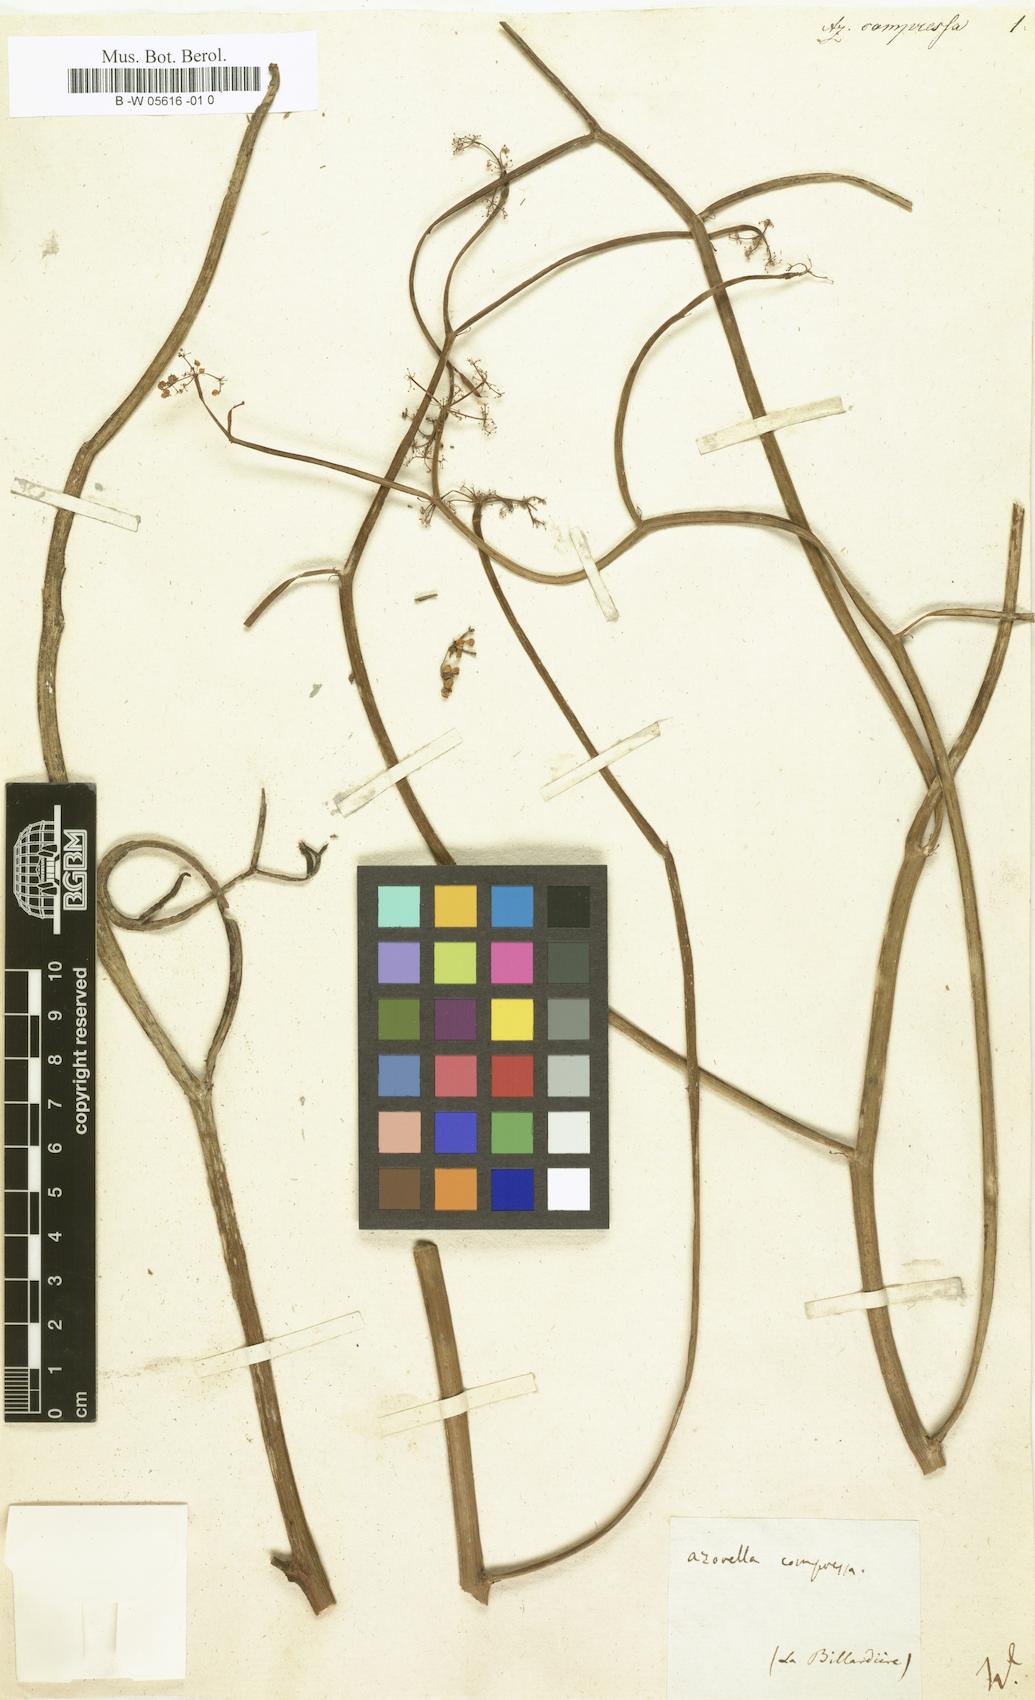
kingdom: Plantae
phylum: Tracheophyta
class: Magnoliopsida
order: Apiales
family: Apiaceae
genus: Platysace
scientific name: Platysace compressa
